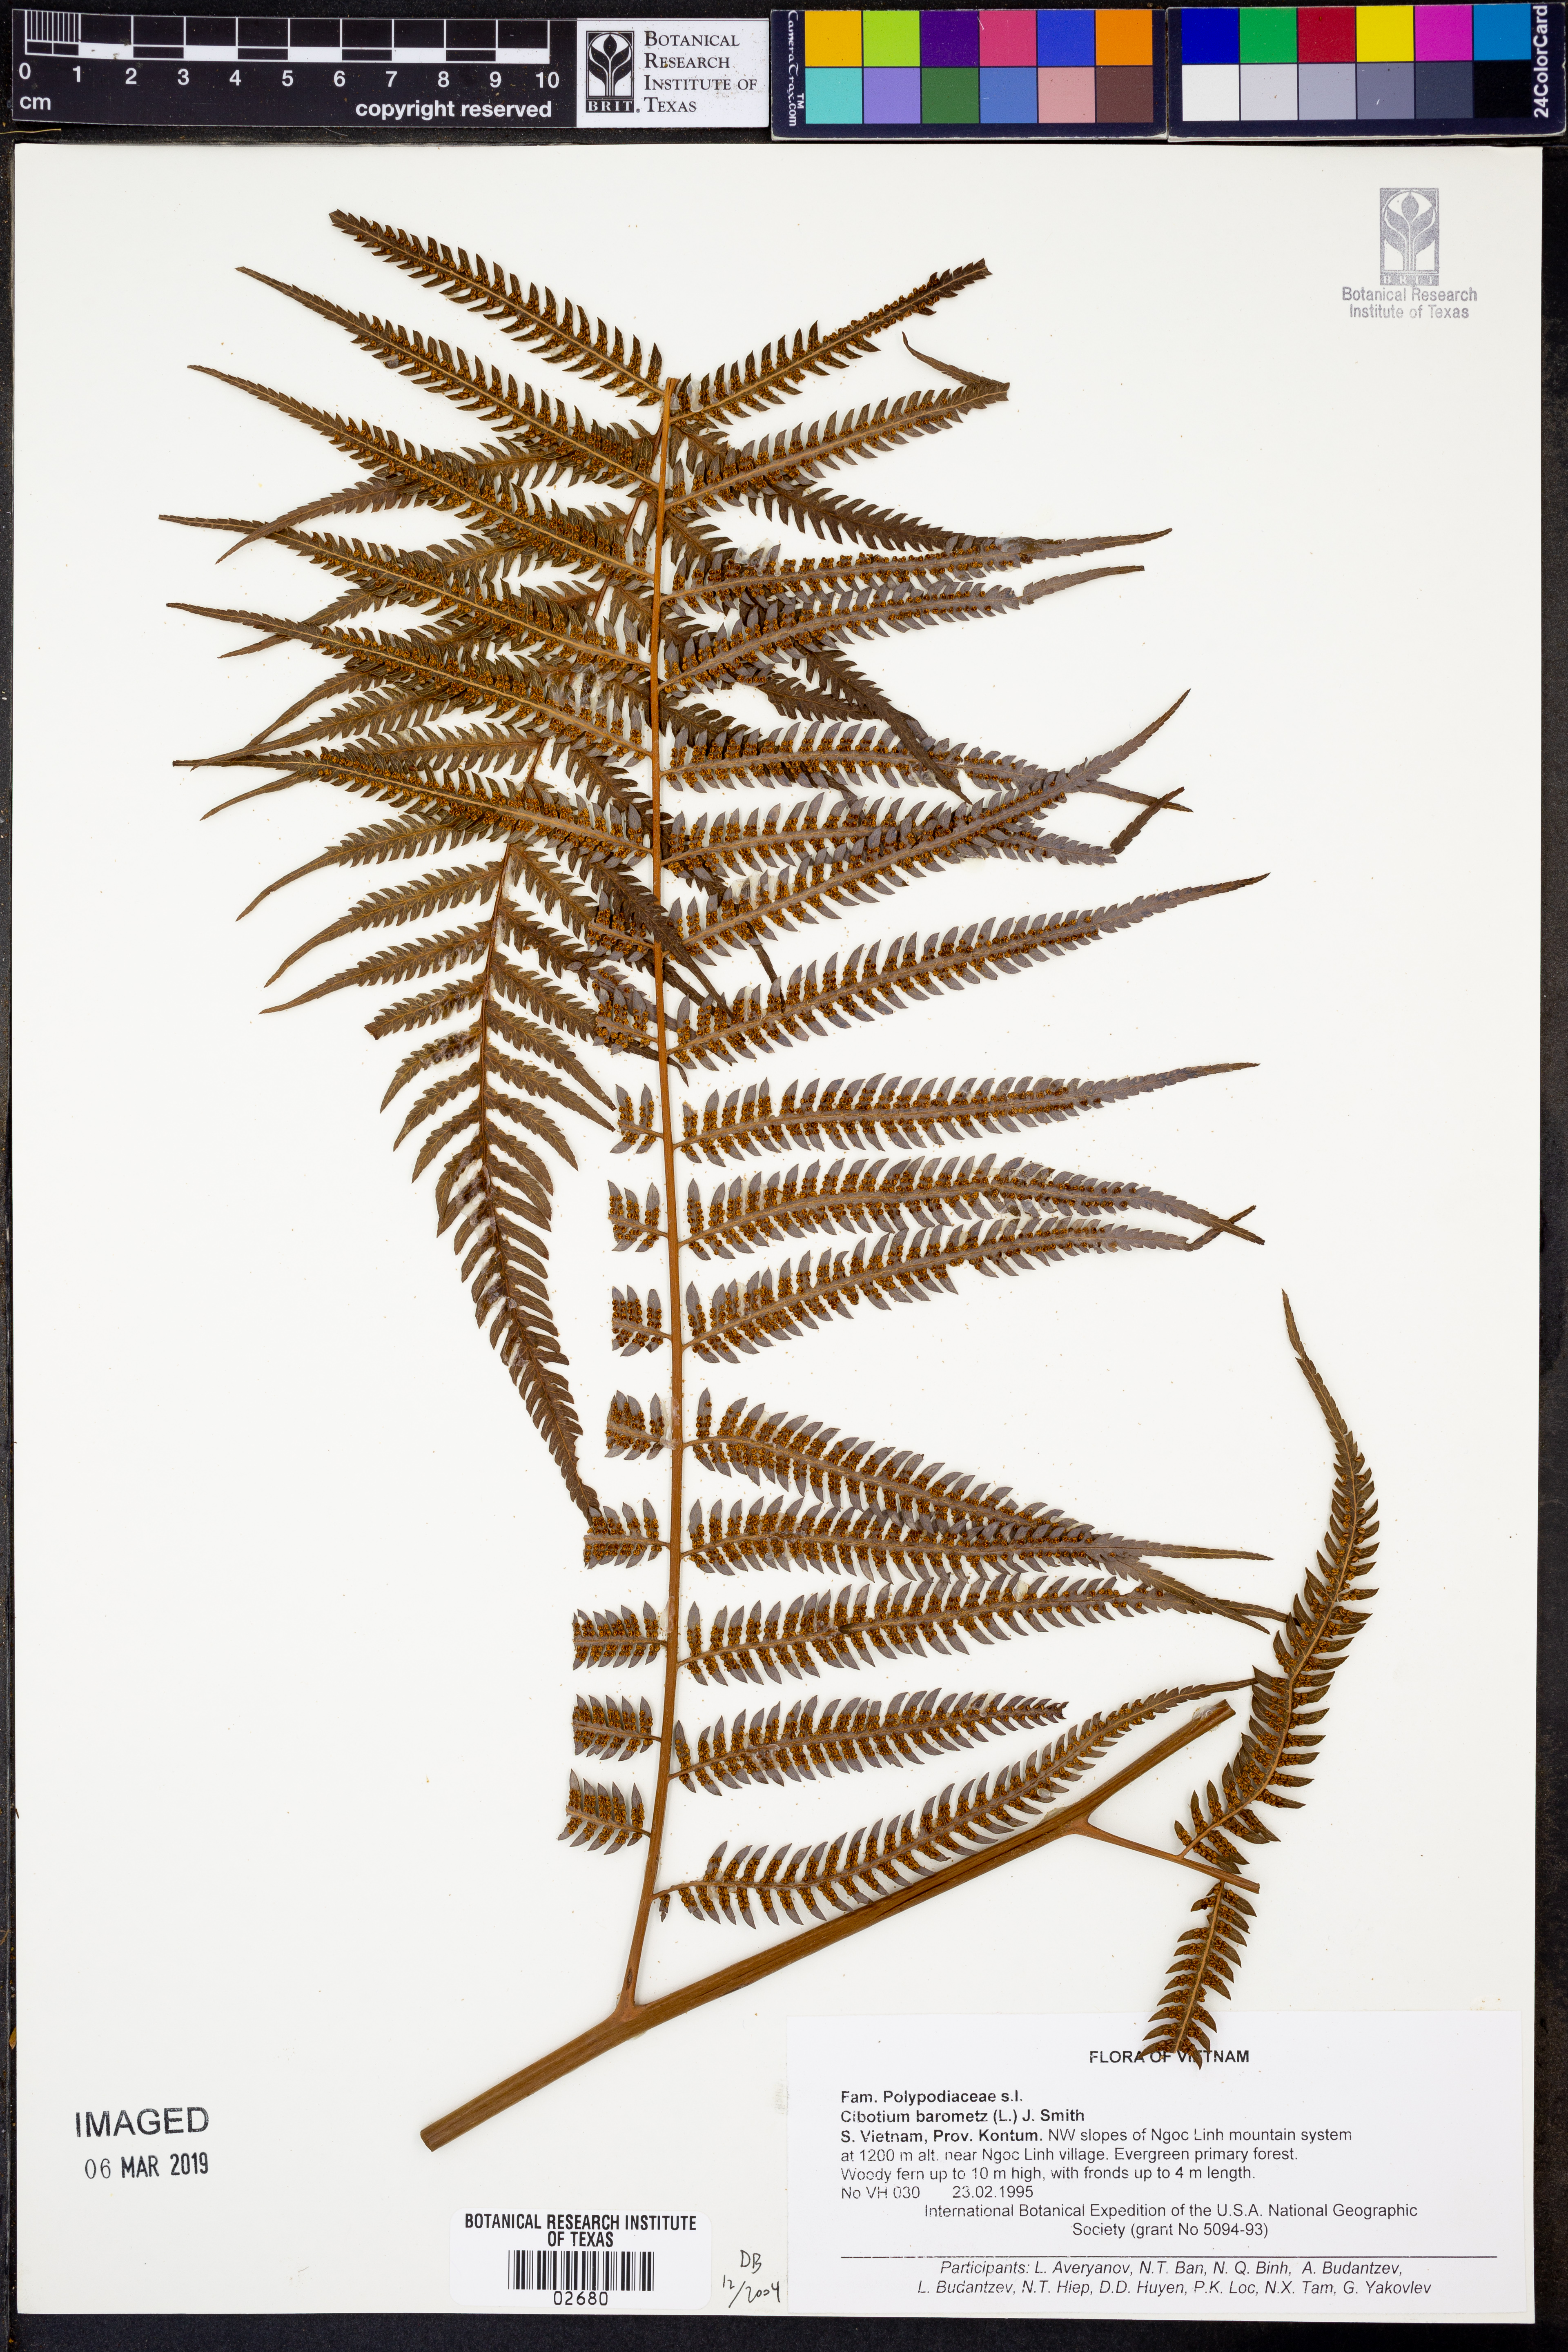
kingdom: Plantae
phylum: Tracheophyta
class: Polypodiopsida
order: Cyatheales
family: Cibotiaceae
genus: Cibotium
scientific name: Cibotium barometz
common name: Scythian-lamb
